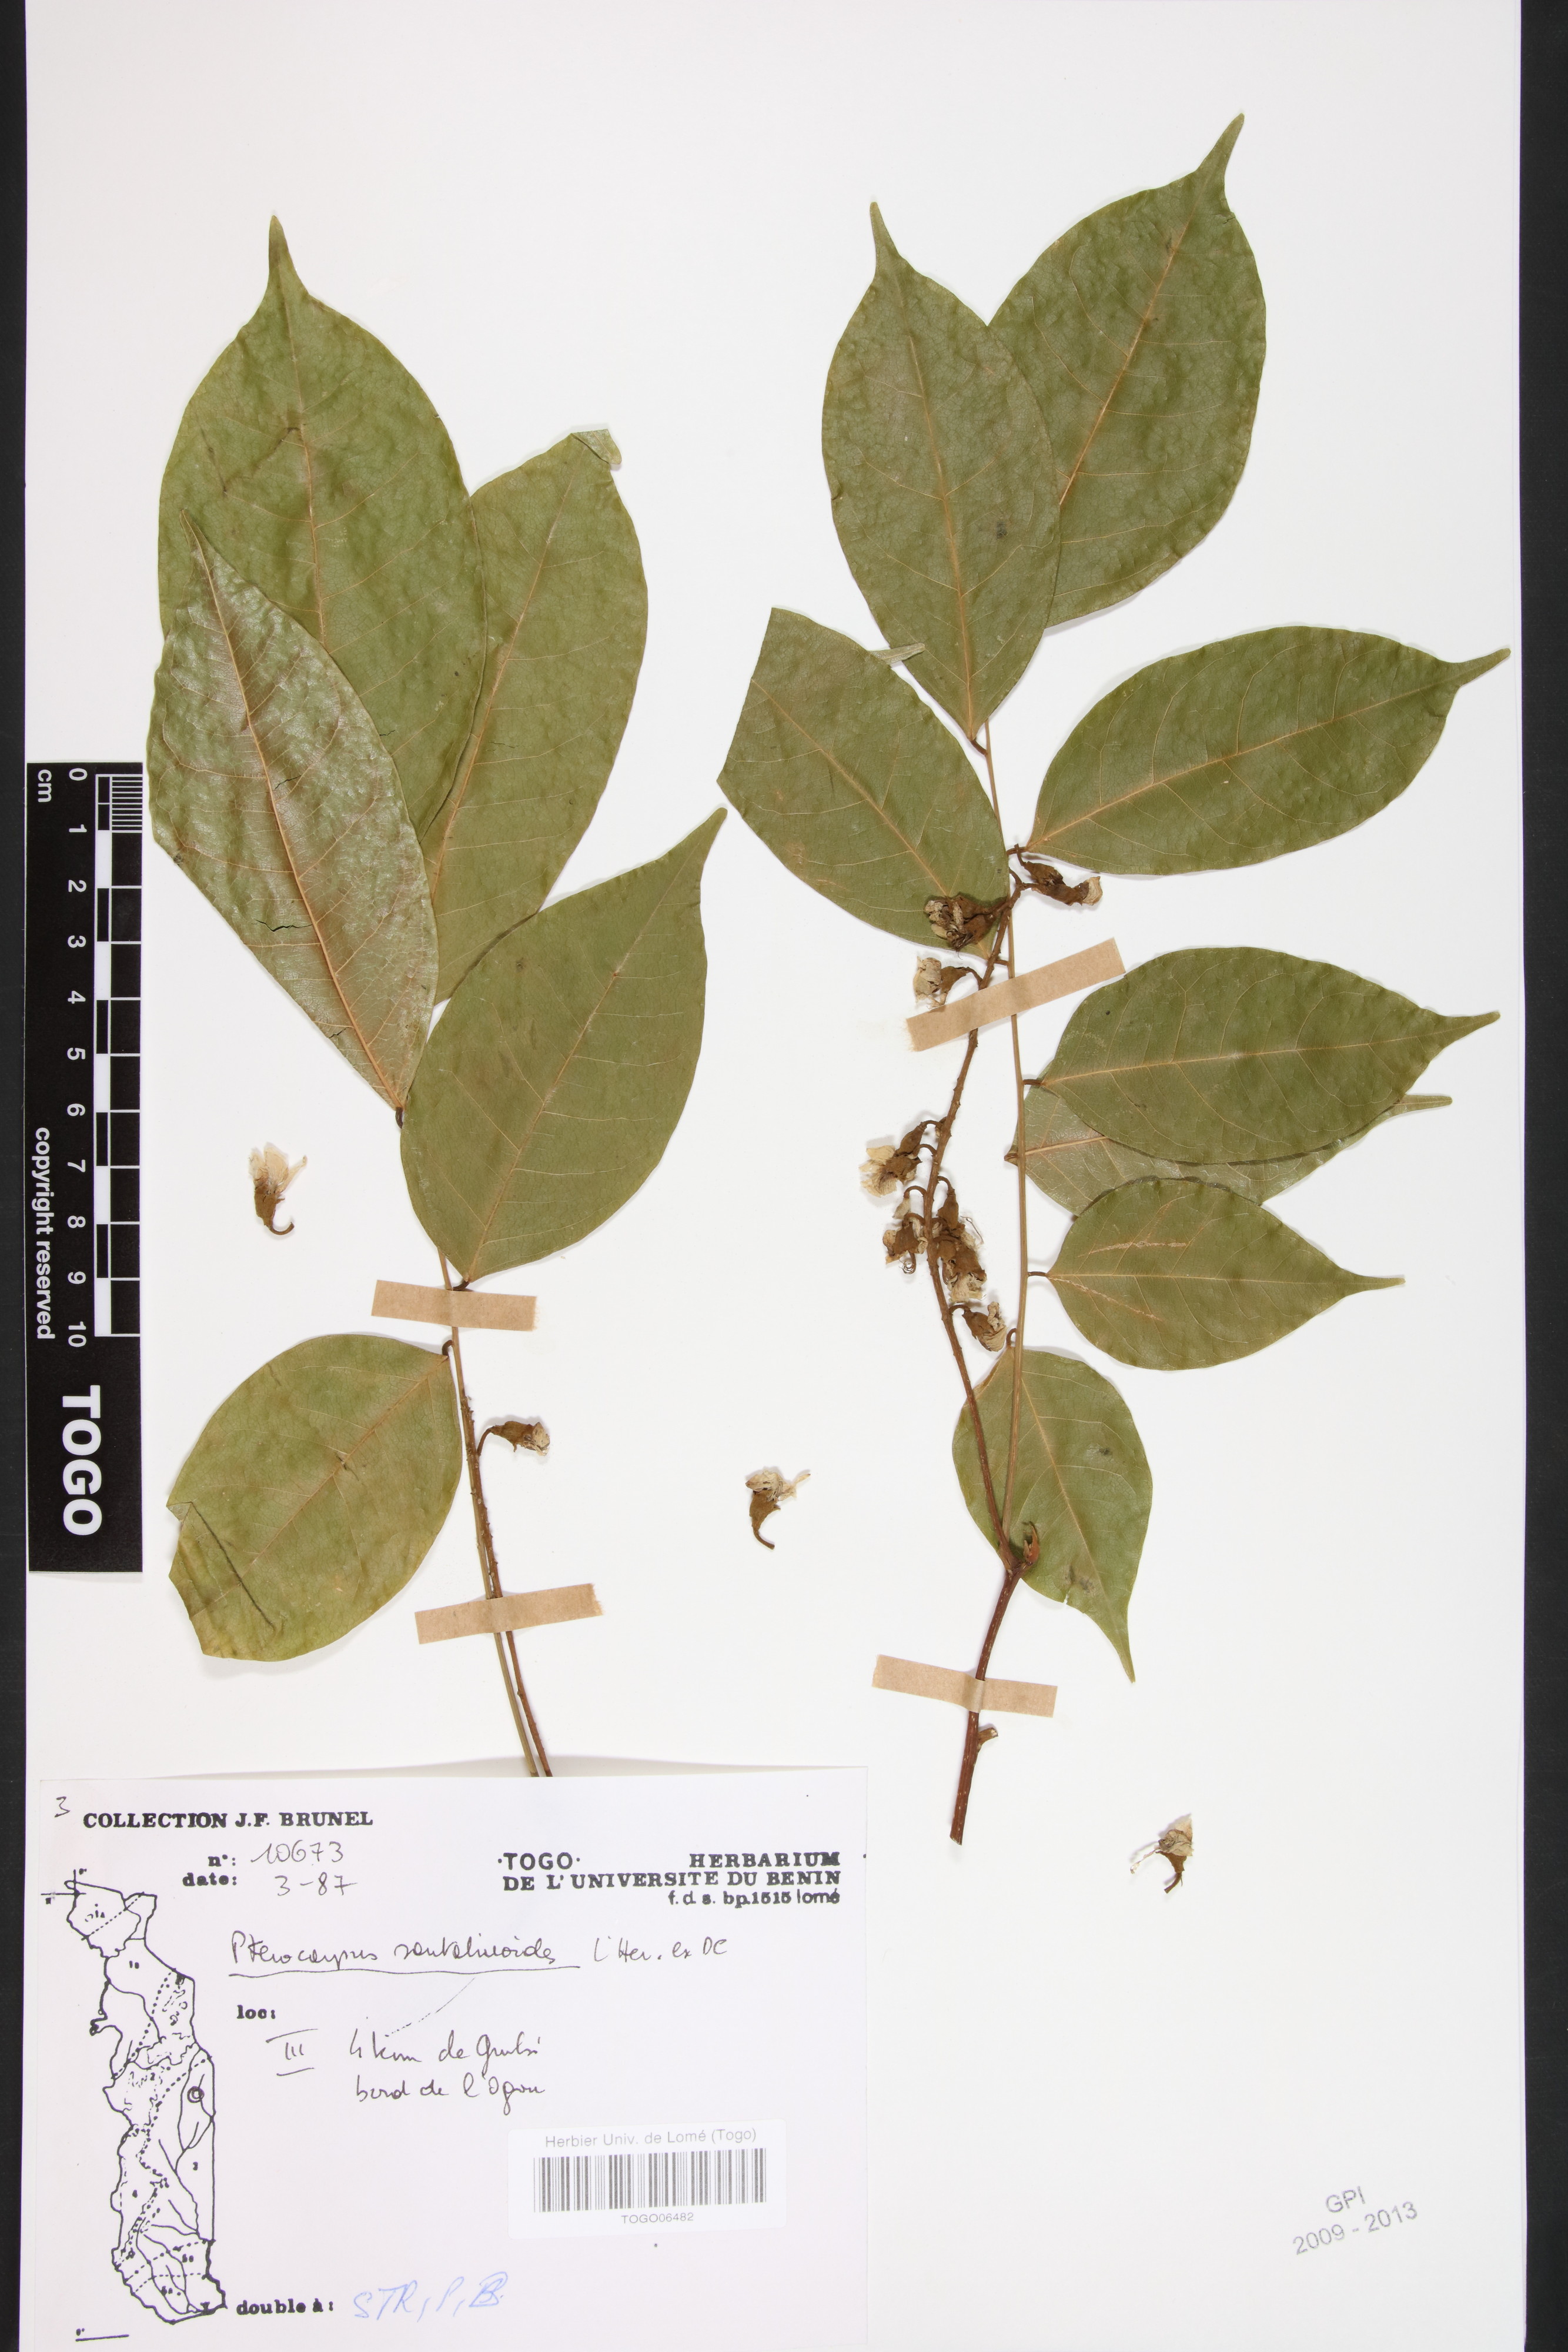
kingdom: Plantae
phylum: Tracheophyta
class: Magnoliopsida
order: Fabales
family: Fabaceae
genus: Pterocarpus
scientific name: Pterocarpus santalinoides
